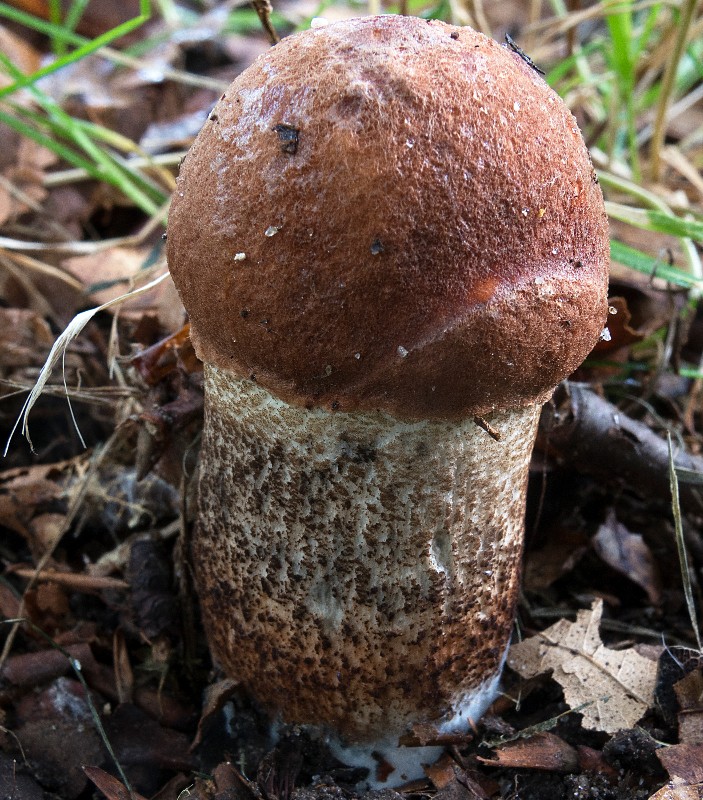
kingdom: Fungi
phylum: Basidiomycota
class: Agaricomycetes
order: Boletales
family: Boletaceae
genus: Leccinum
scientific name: Leccinum aurantiacum
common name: rustrød skælrørhat
